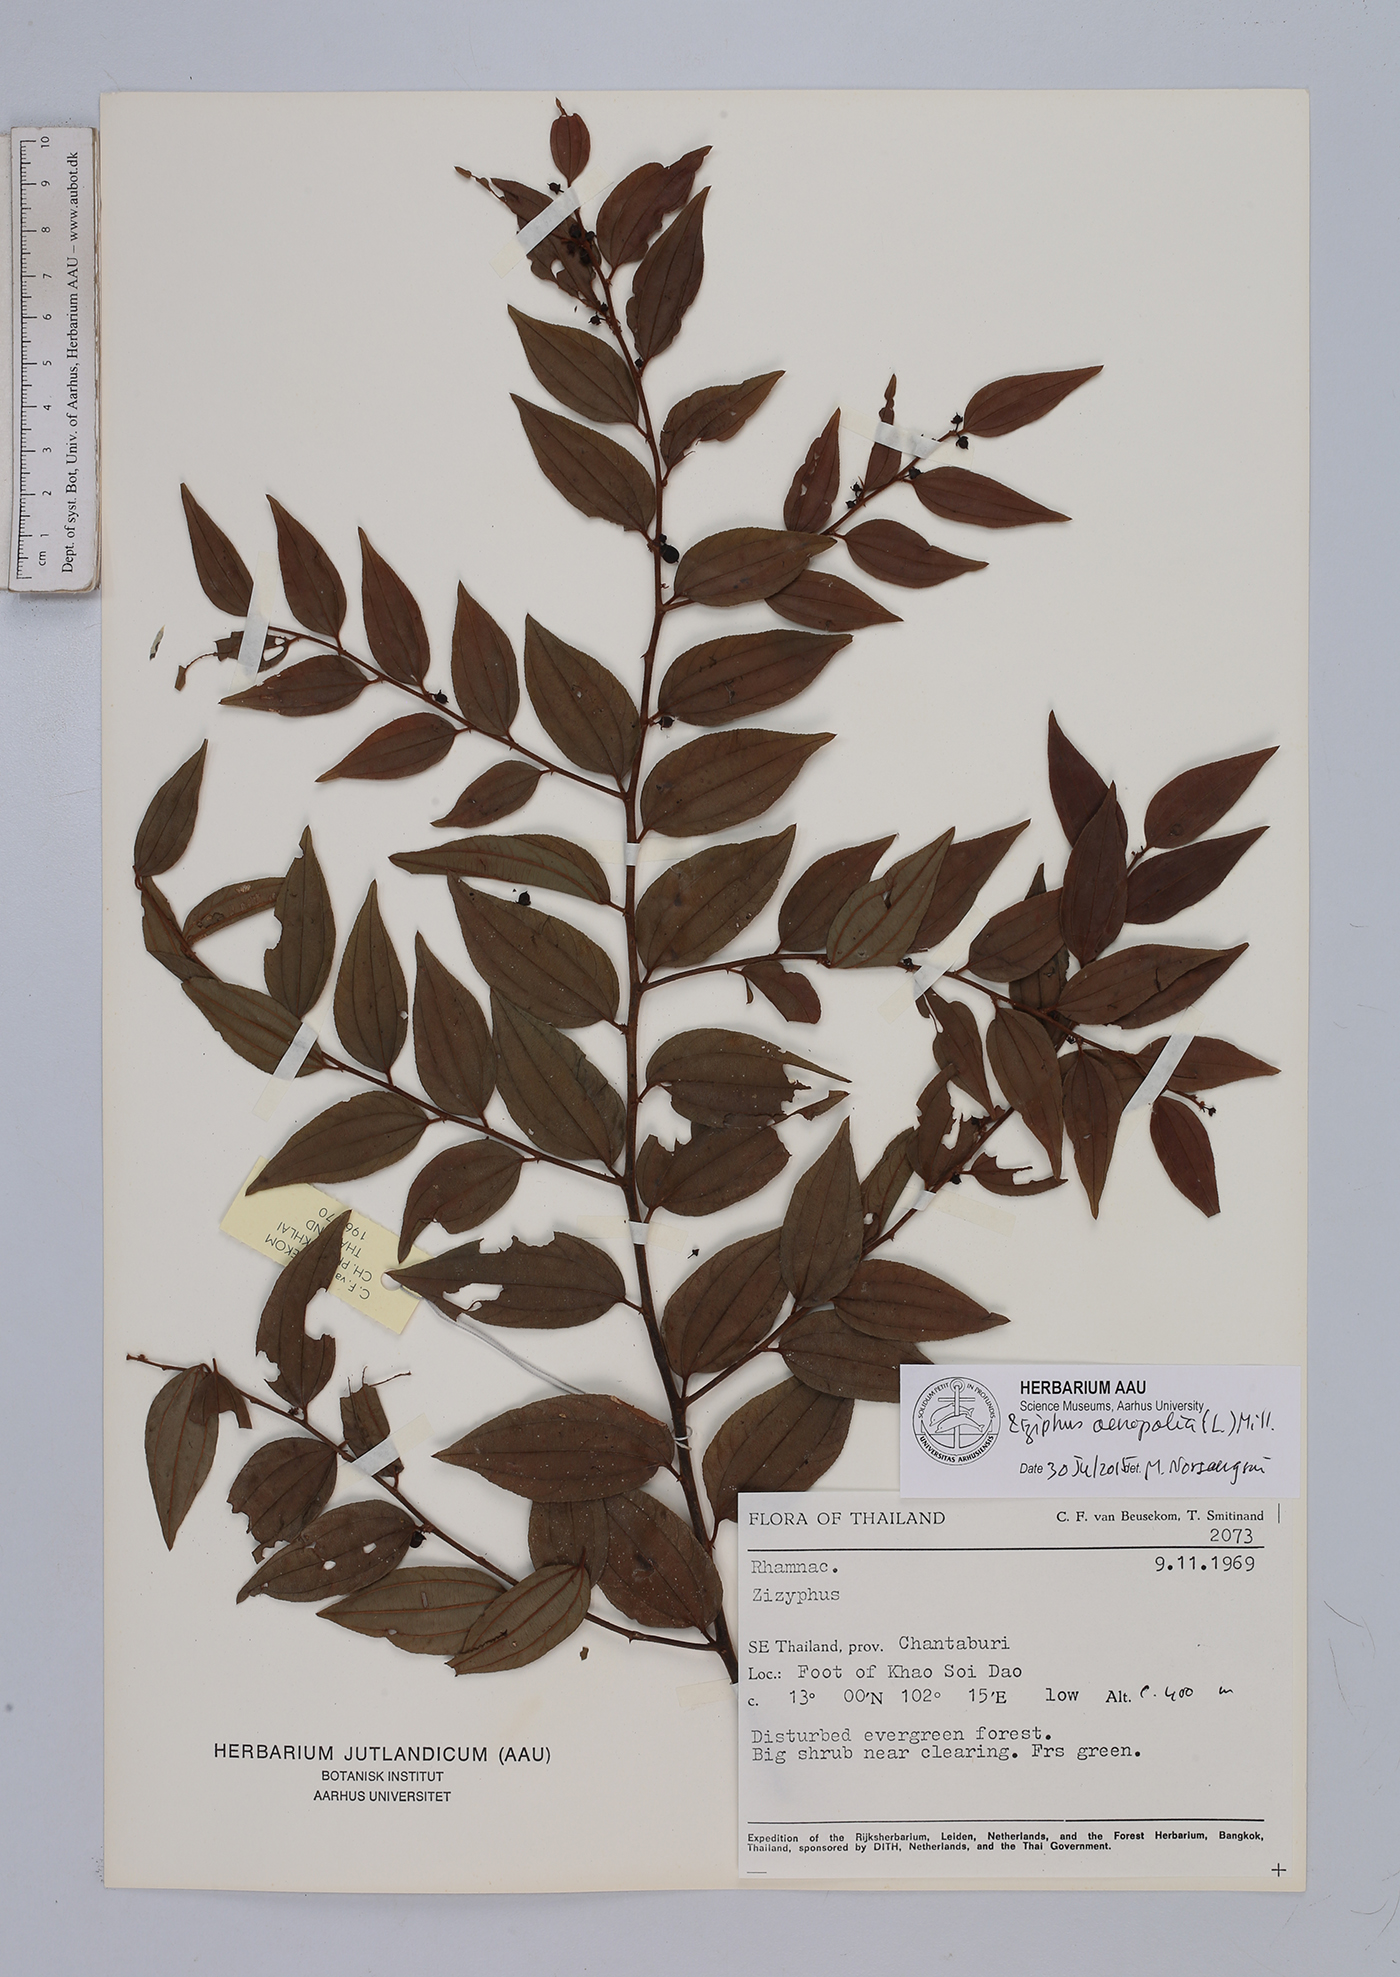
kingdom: Plantae
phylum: Tracheophyta
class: Magnoliopsida
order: Rosales
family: Rhamnaceae
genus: Ziziphus
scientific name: Ziziphus oenopolia
